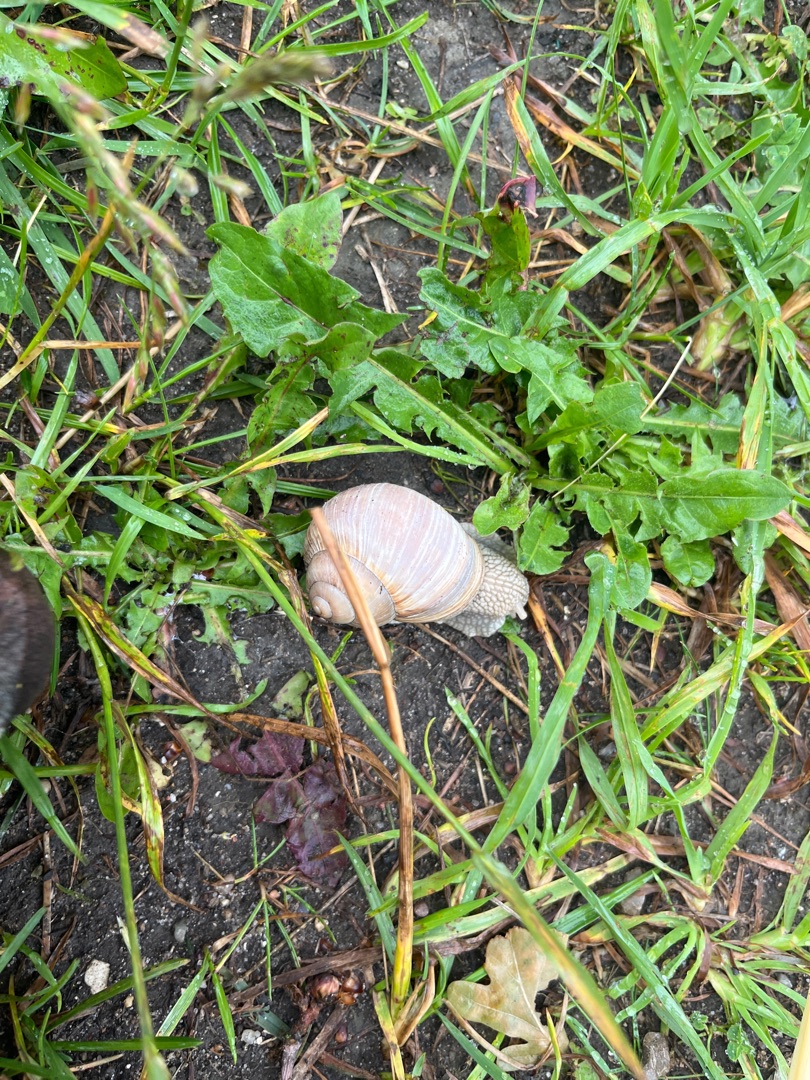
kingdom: Animalia
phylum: Mollusca
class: Gastropoda
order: Stylommatophora
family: Helicidae
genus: Helix
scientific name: Helix pomatia
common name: Vinbjergsnegl
